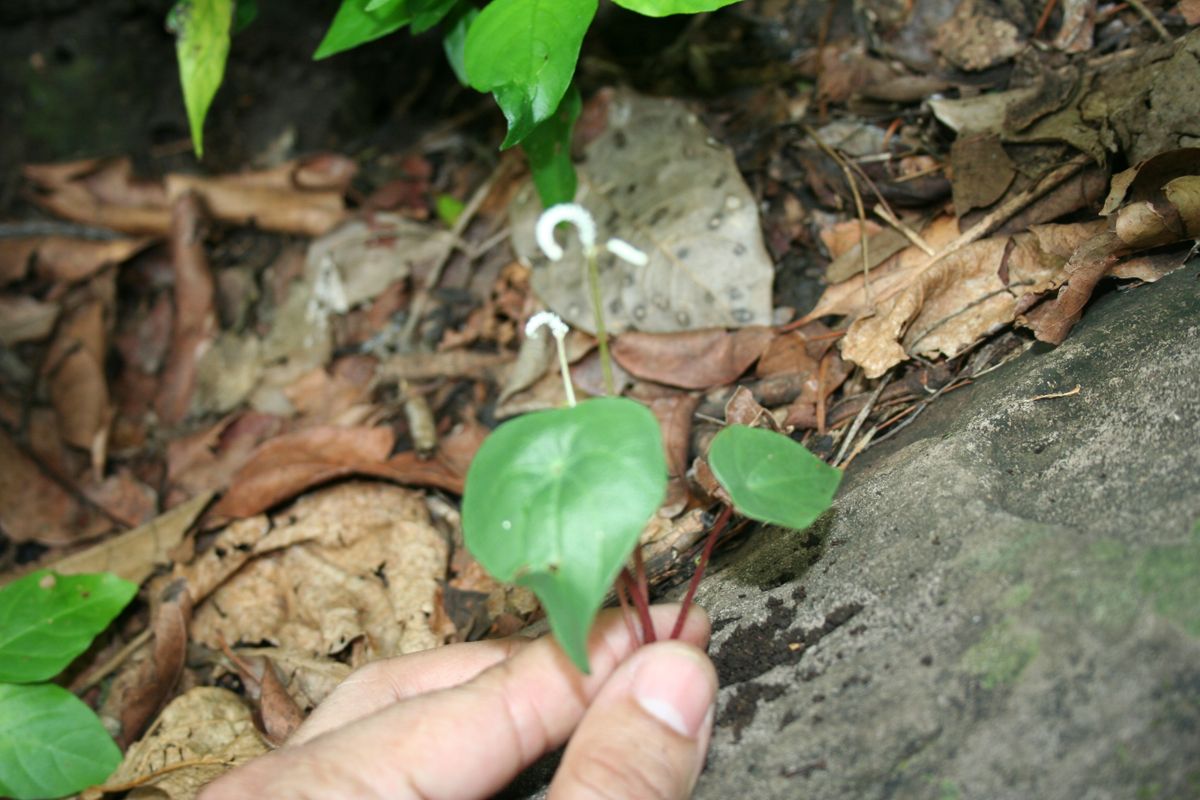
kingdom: Plantae
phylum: Tracheophyta
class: Magnoliopsida
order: Piperales
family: Piperaceae
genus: Peperomia
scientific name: Peperomia
